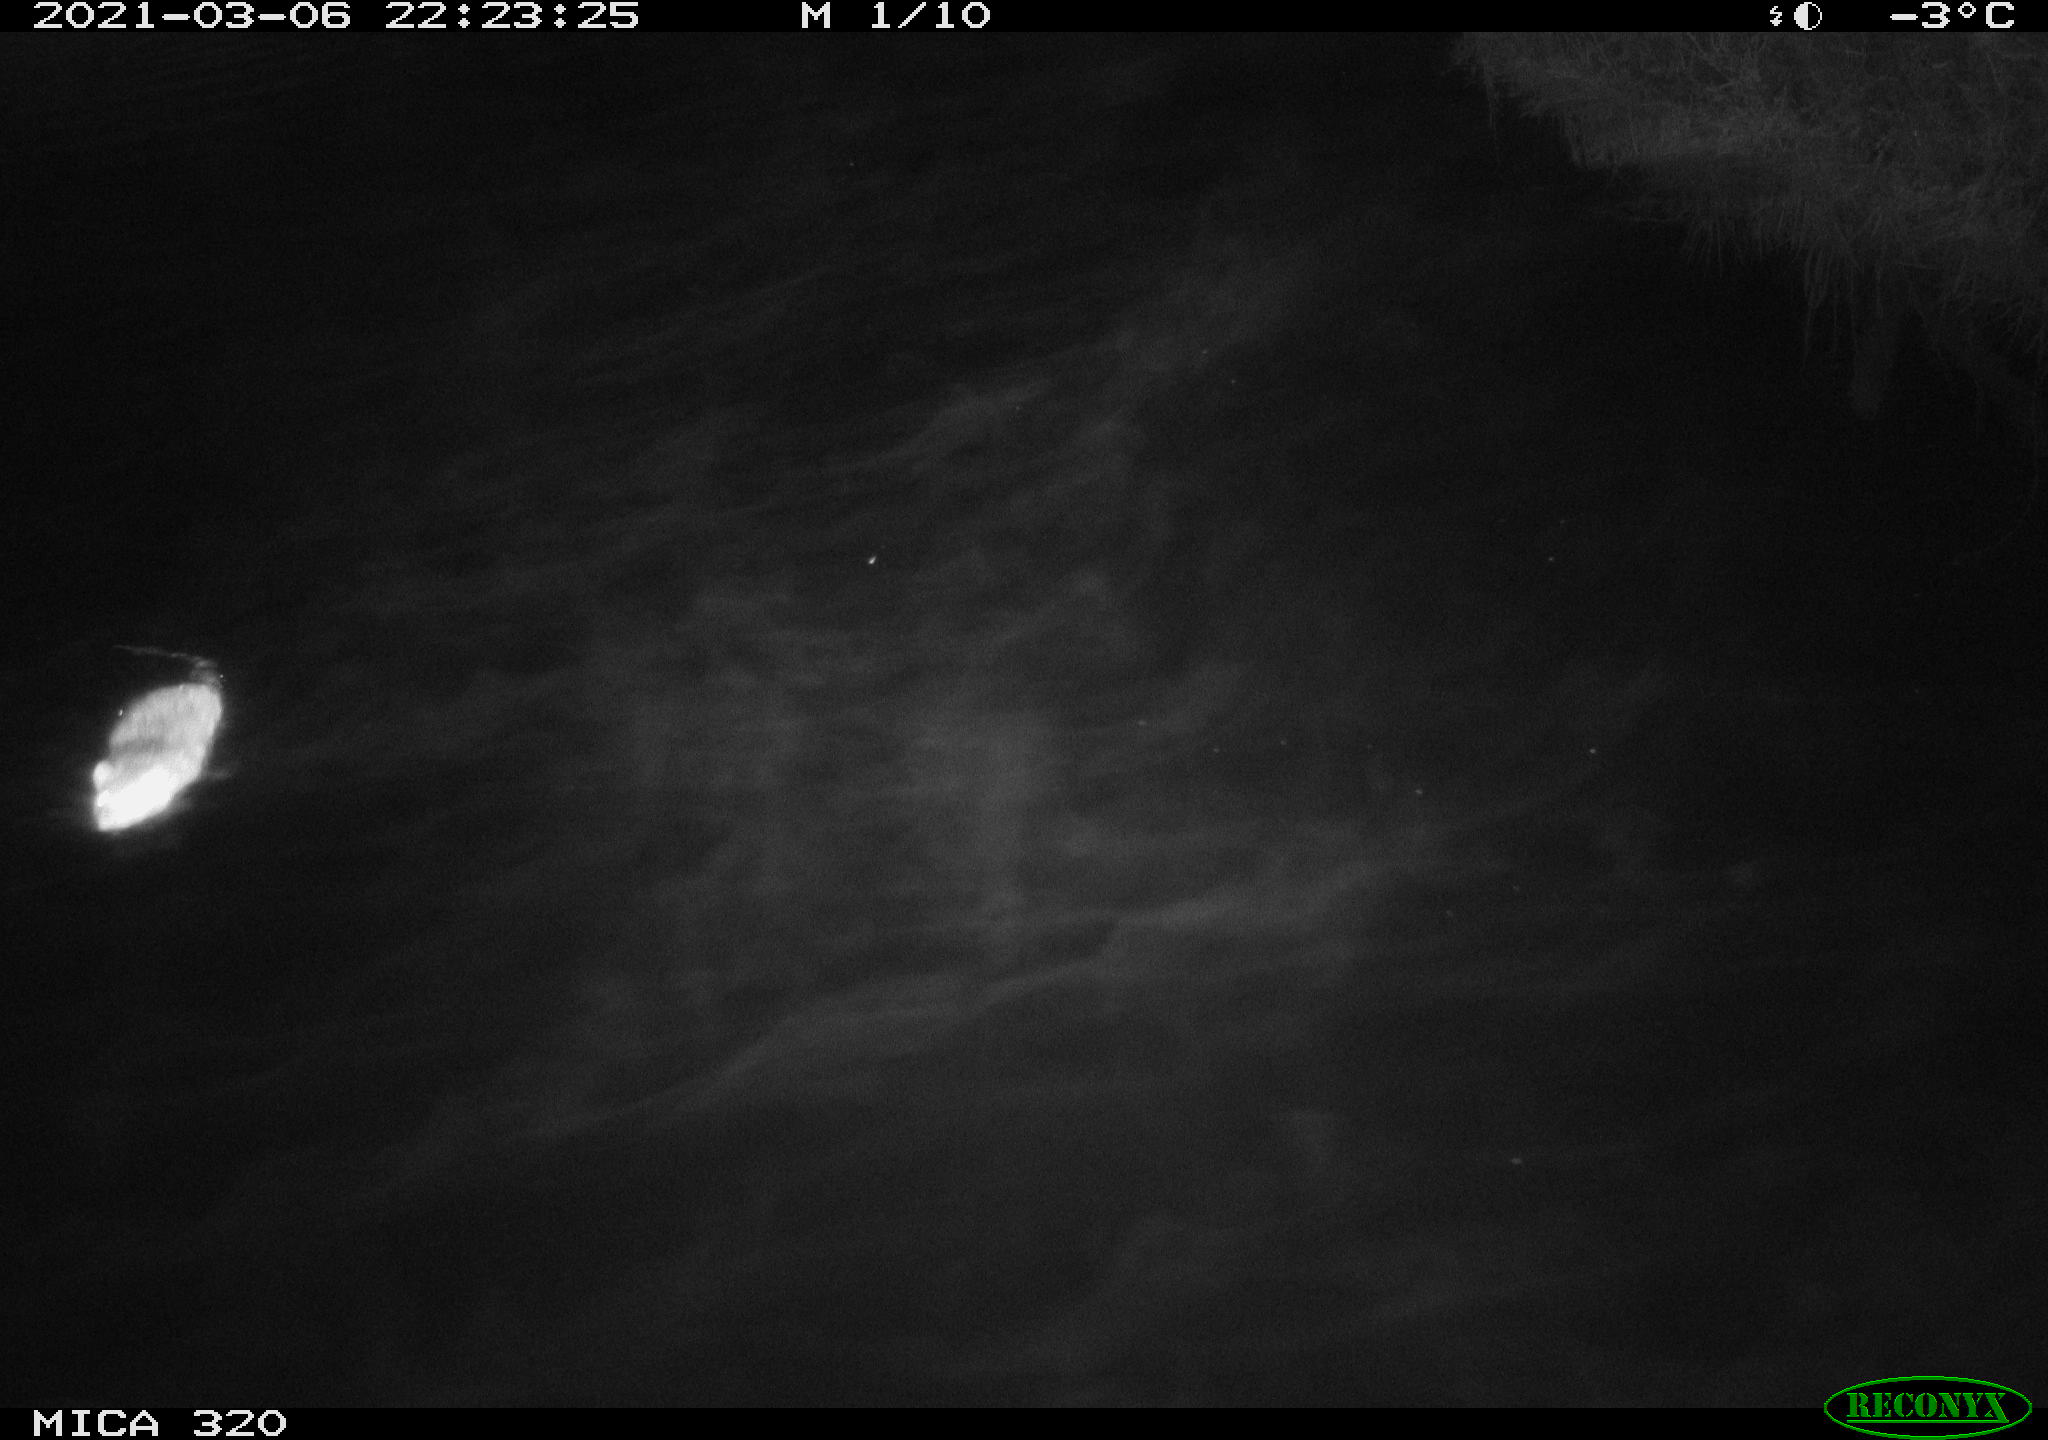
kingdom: Animalia
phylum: Chordata
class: Mammalia
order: Rodentia
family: Cricetidae
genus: Ondatra
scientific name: Ondatra zibethicus
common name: Muskrat
